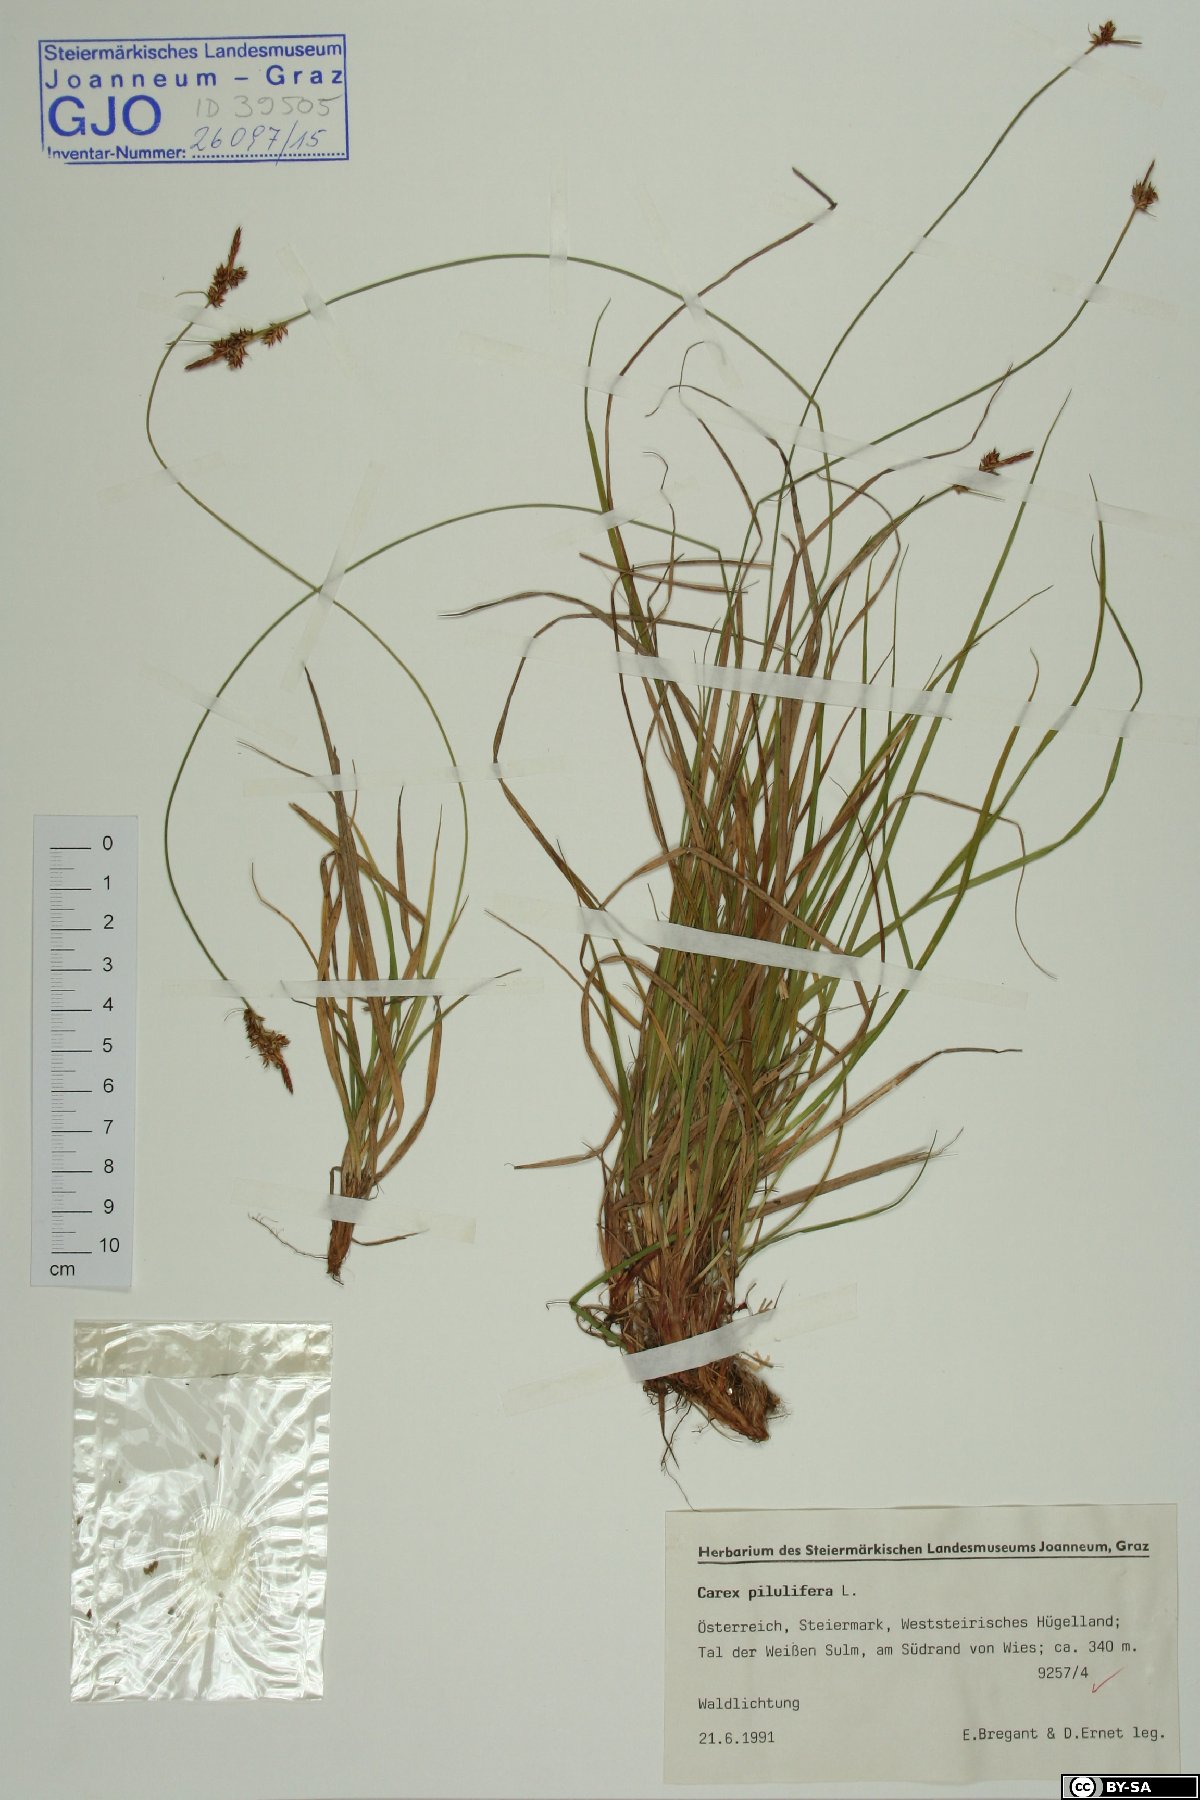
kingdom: Plantae
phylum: Tracheophyta
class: Liliopsida
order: Poales
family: Cyperaceae
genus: Carex
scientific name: Carex pilulifera
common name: Pill sedge
